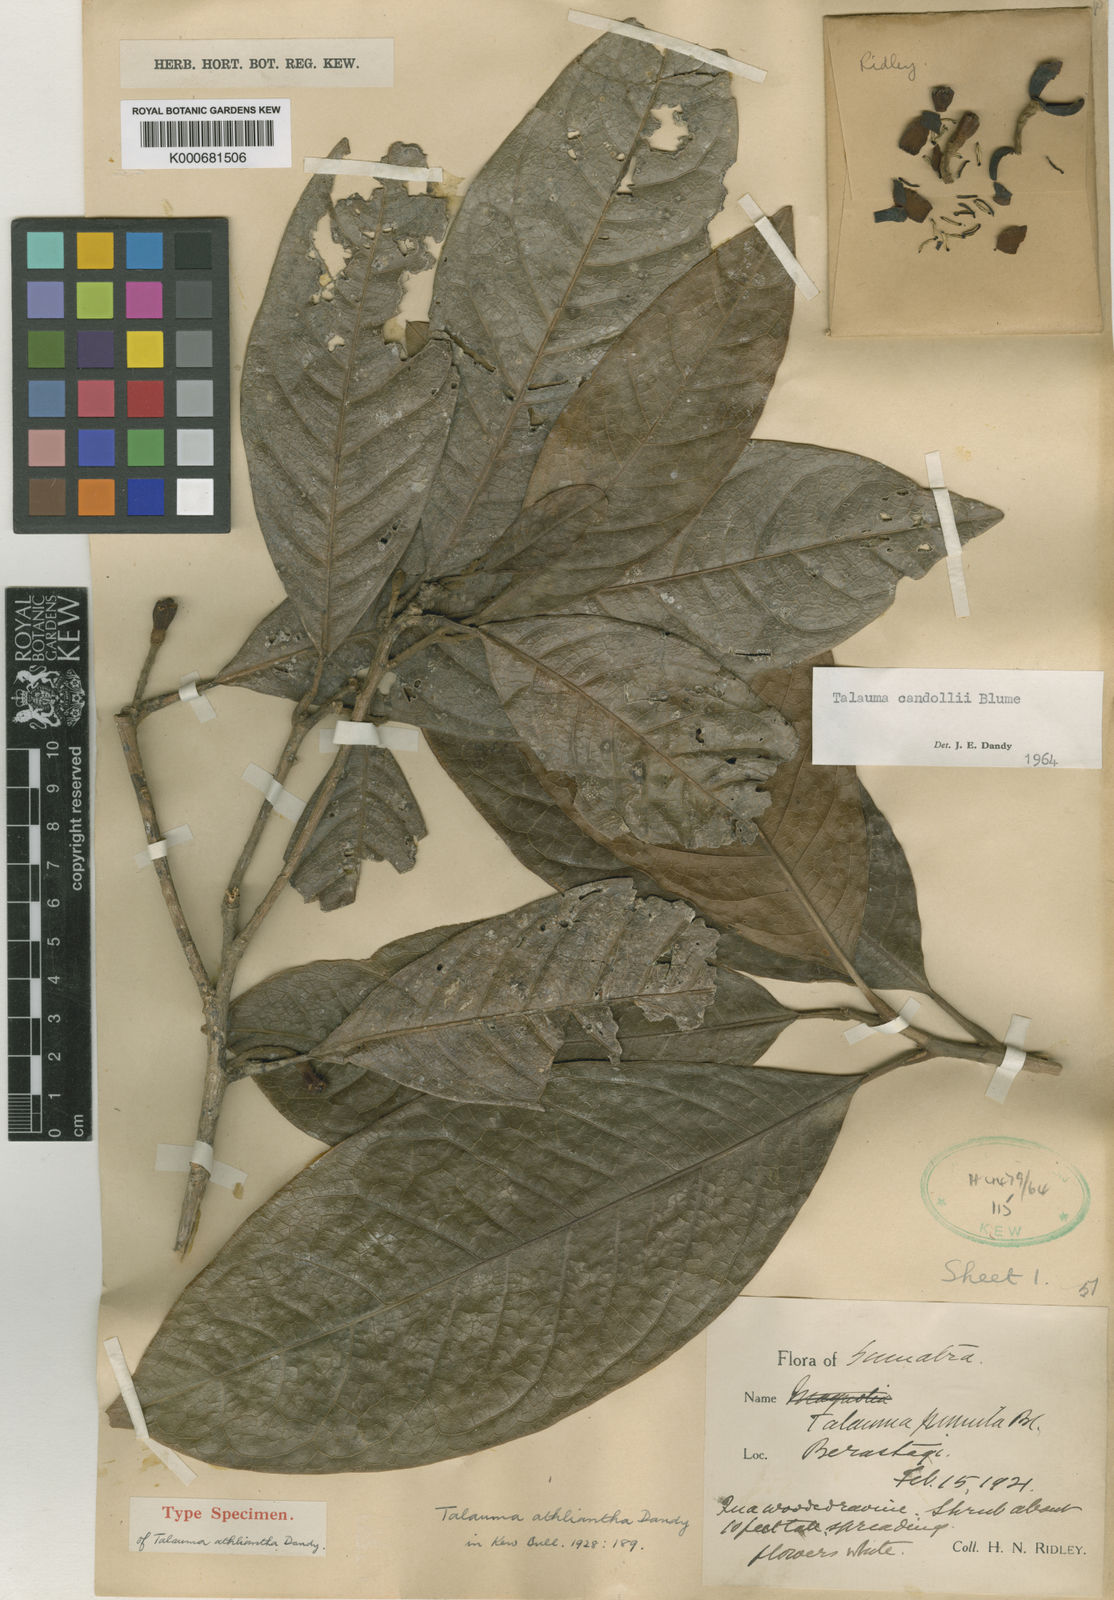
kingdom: Plantae
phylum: Tracheophyta
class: Magnoliopsida
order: Magnoliales
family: Magnoliaceae
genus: Magnolia
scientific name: Magnolia liliifera
